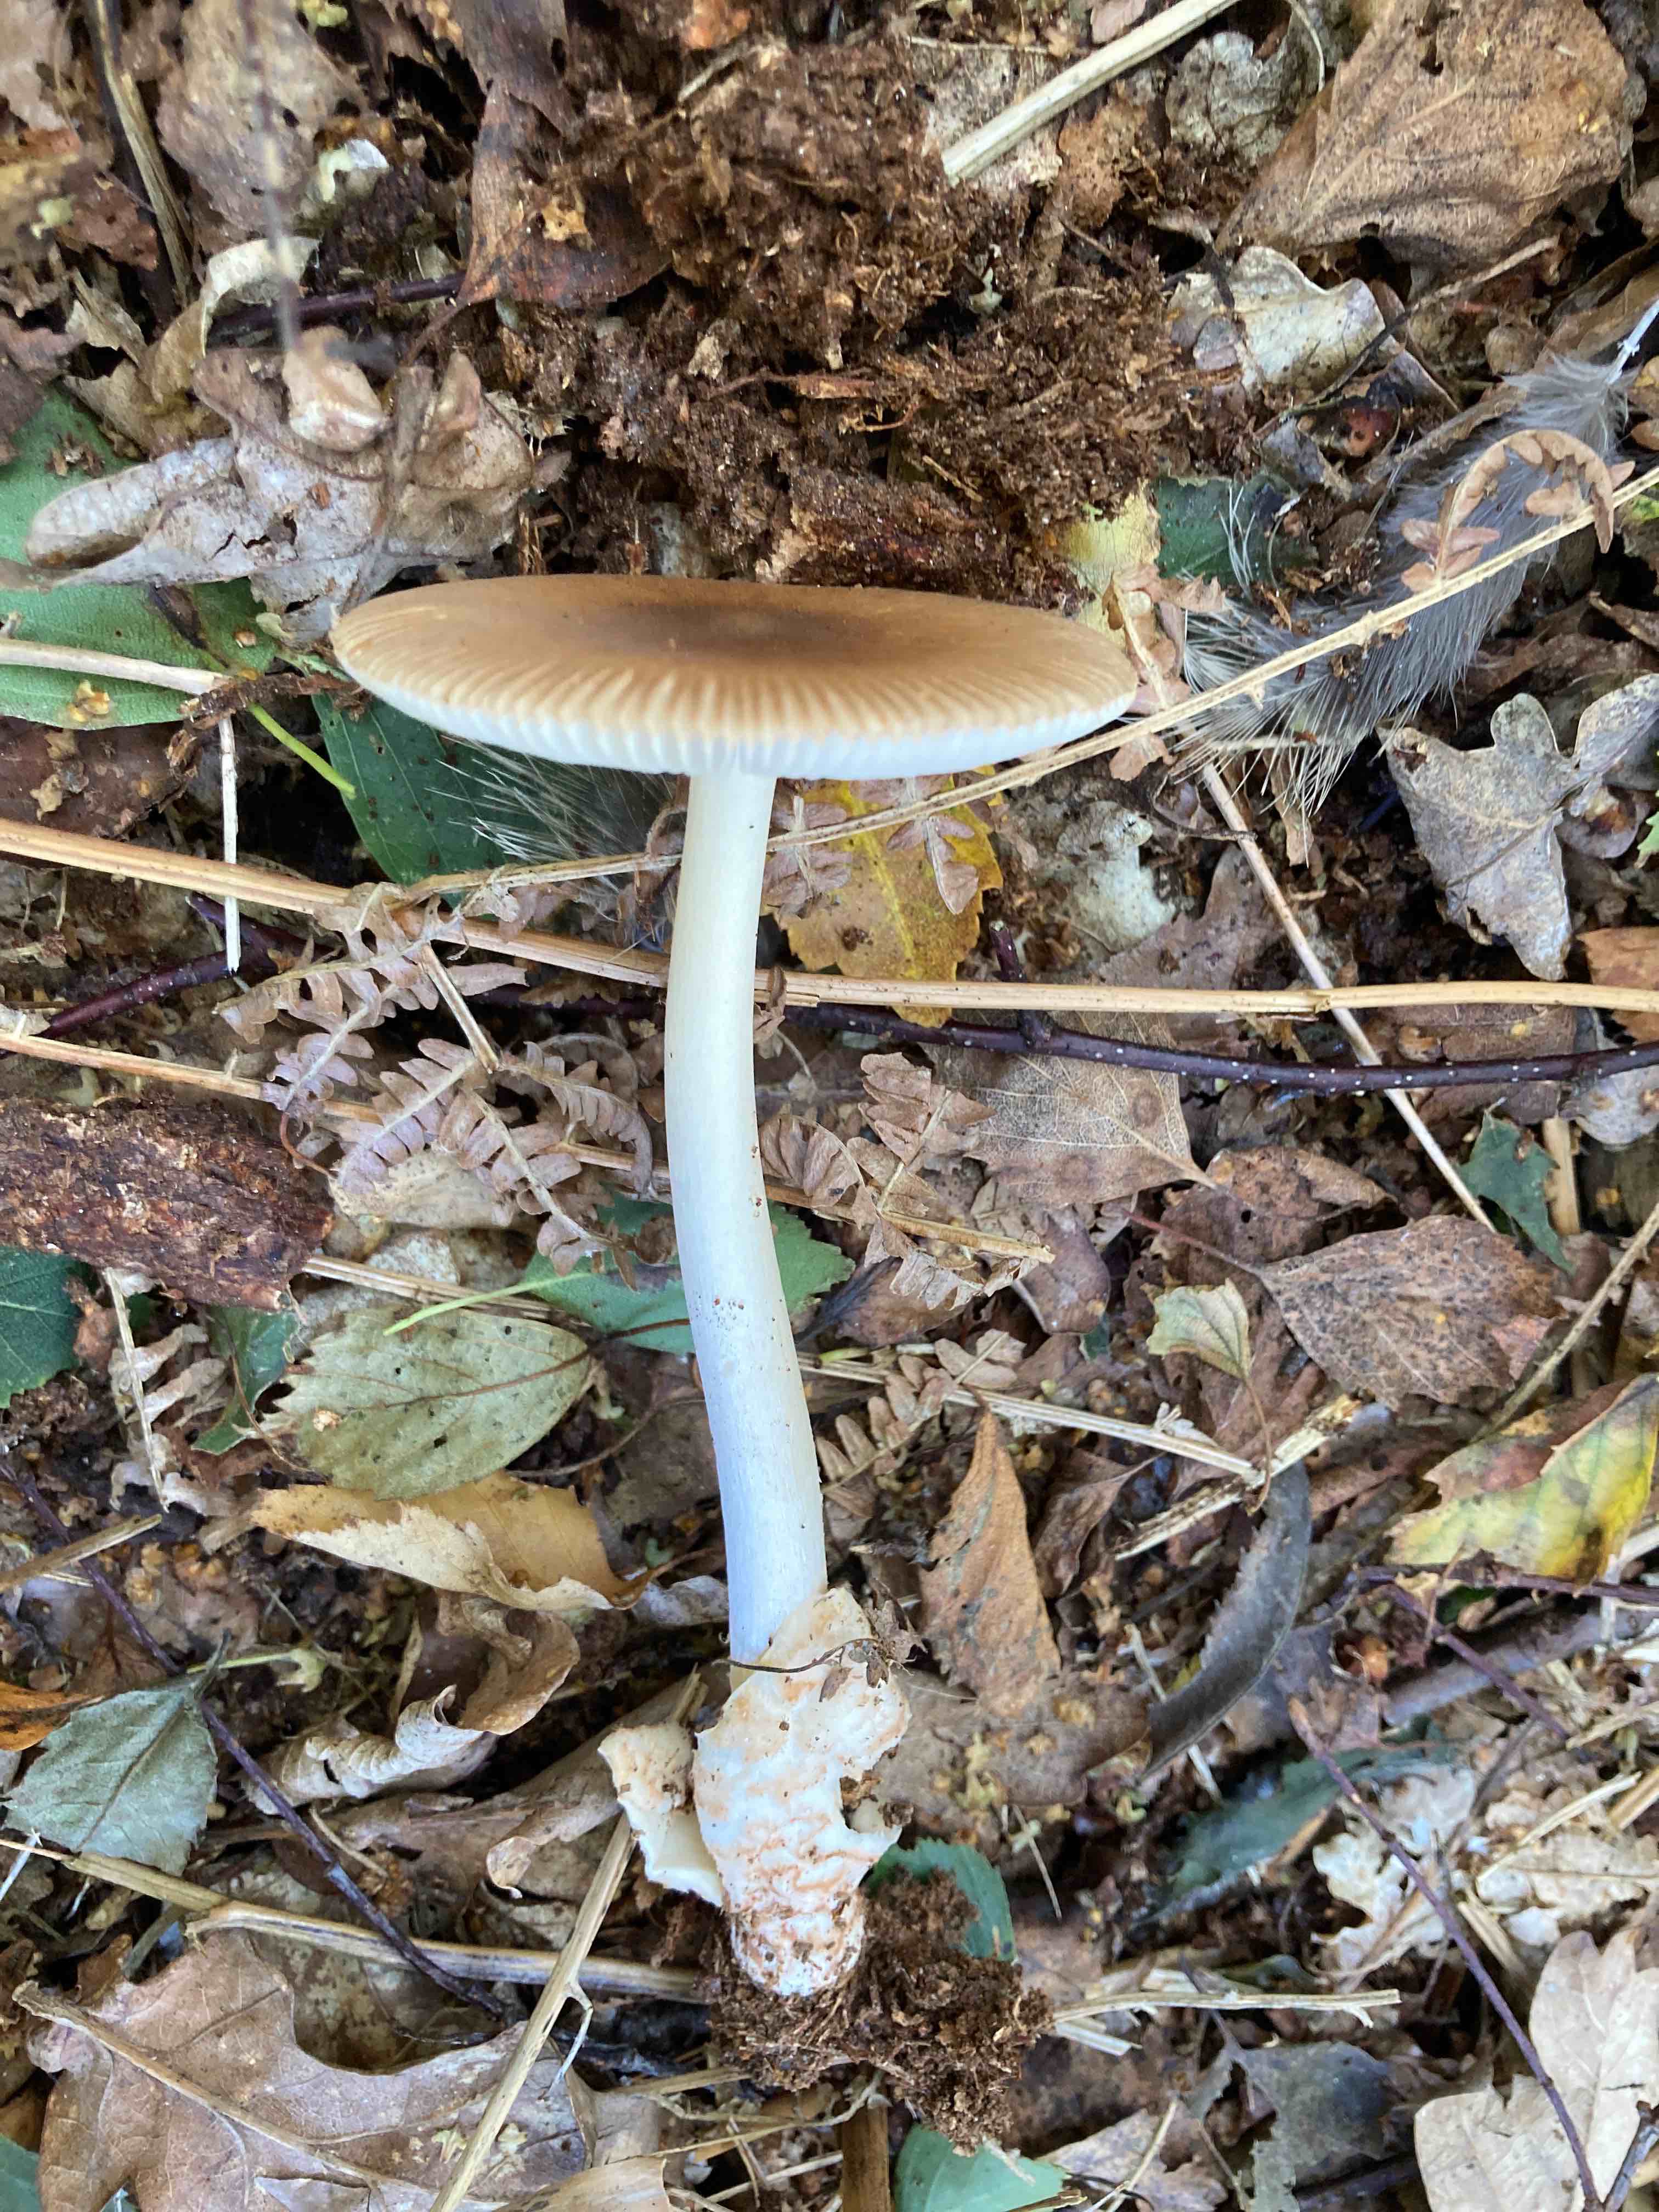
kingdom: Fungi
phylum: Basidiomycota
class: Agaricomycetes
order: Agaricales
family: Amanitaceae
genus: Amanita
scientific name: Amanita fulva
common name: brun kam-fluesvamp
